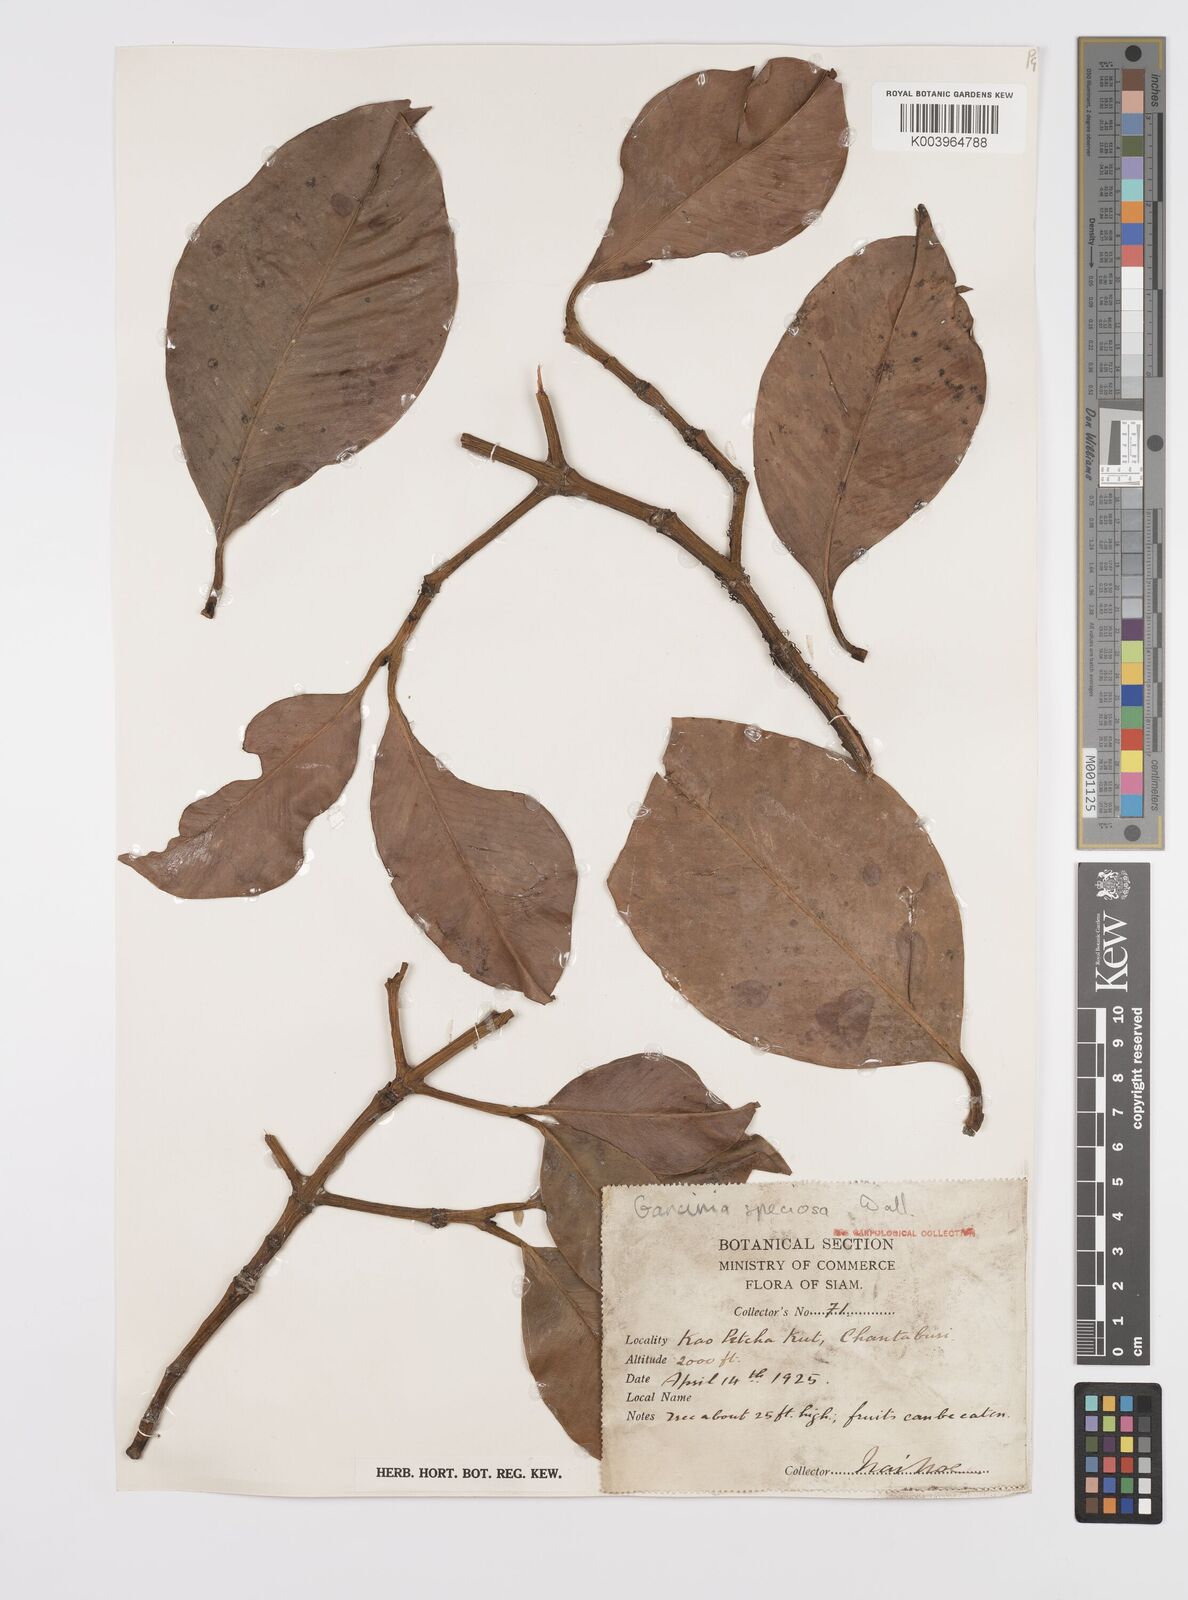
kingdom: Plantae
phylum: Tracheophyta
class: Magnoliopsida
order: Malpighiales
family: Clusiaceae
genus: Garcinia
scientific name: Garcinia celebica
